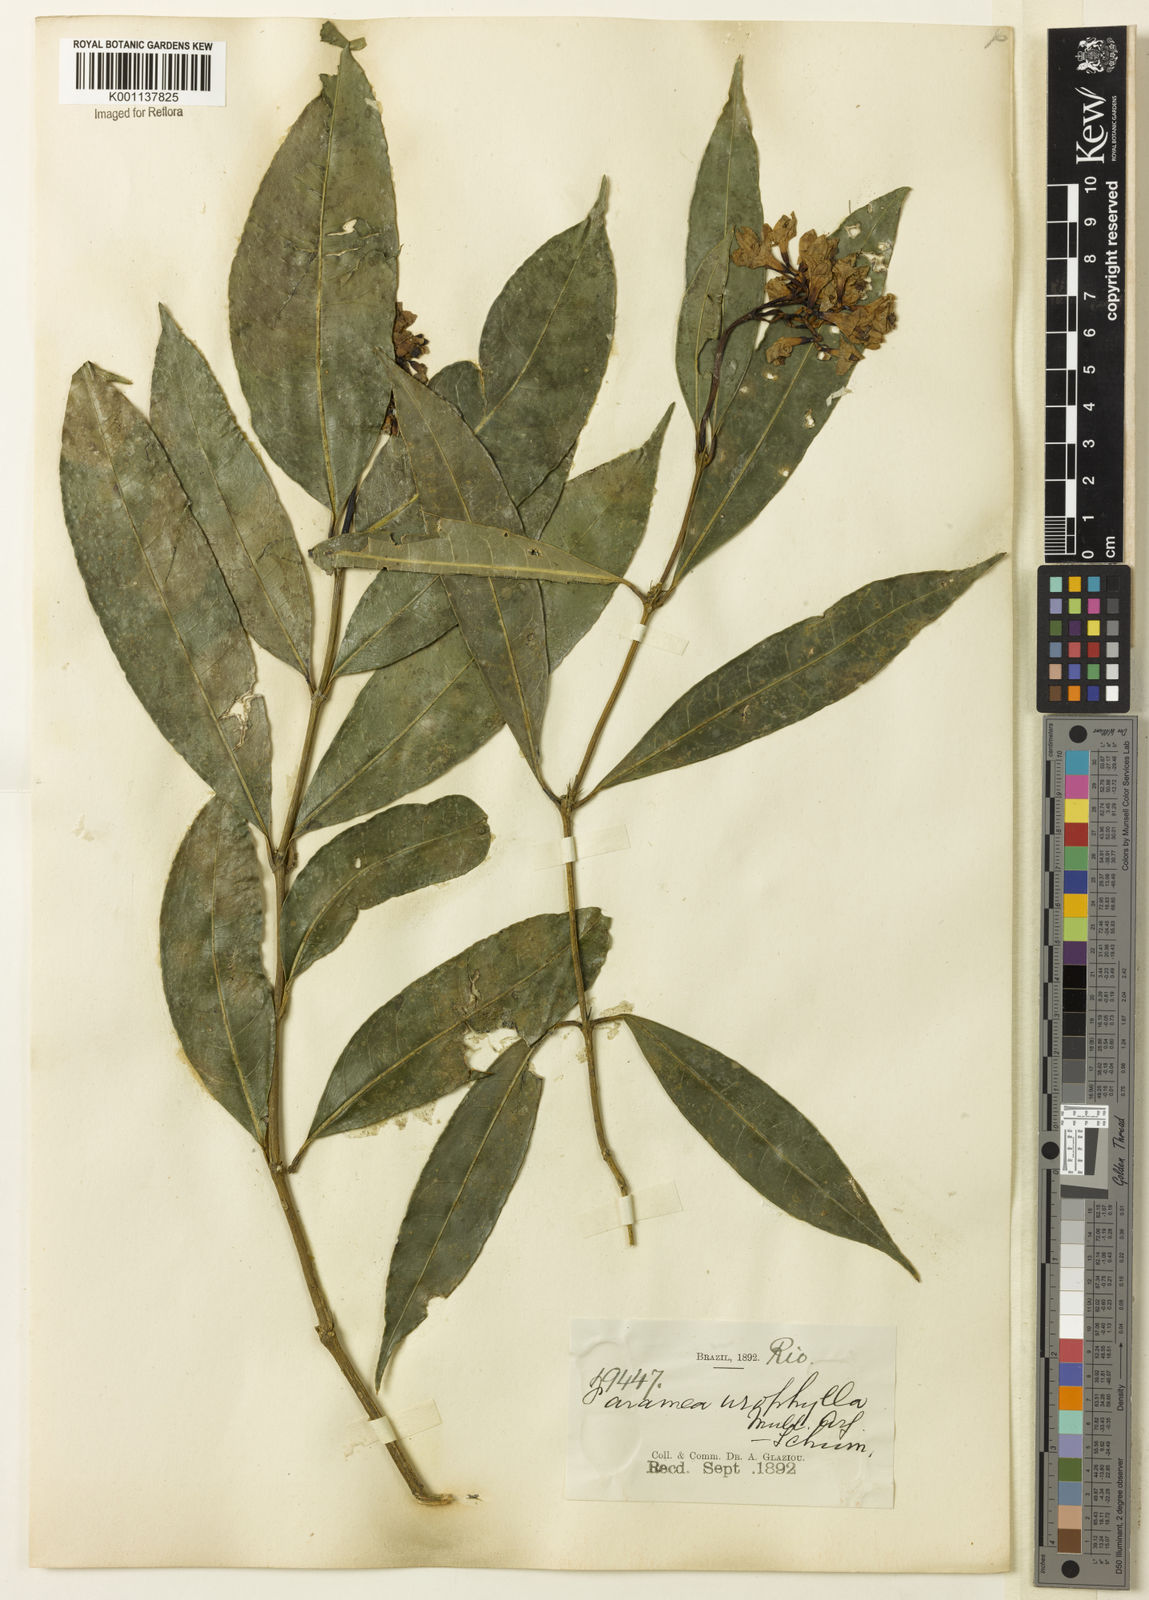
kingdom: Plantae
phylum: Tracheophyta
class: Magnoliopsida
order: Gentianales
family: Rubiaceae
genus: Faramea
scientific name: Faramea
